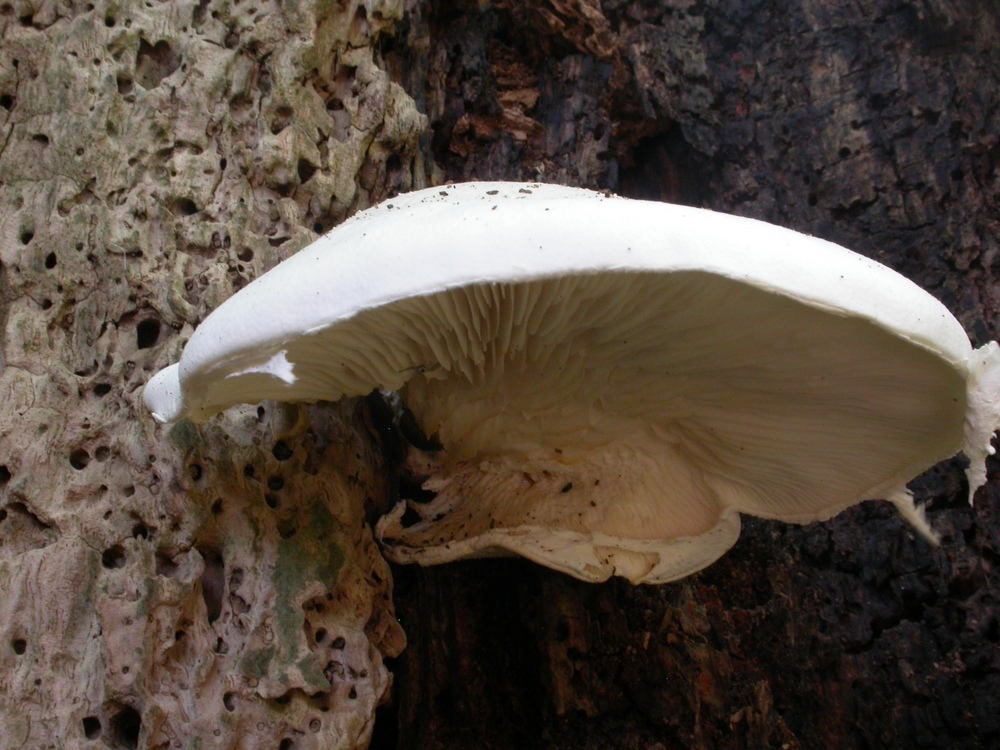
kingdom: Fungi
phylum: Basidiomycota
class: Agaricomycetes
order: Agaricales
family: Pleurotaceae
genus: Pleurotus
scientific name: Pleurotus dryinus
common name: korkagtig østershat
